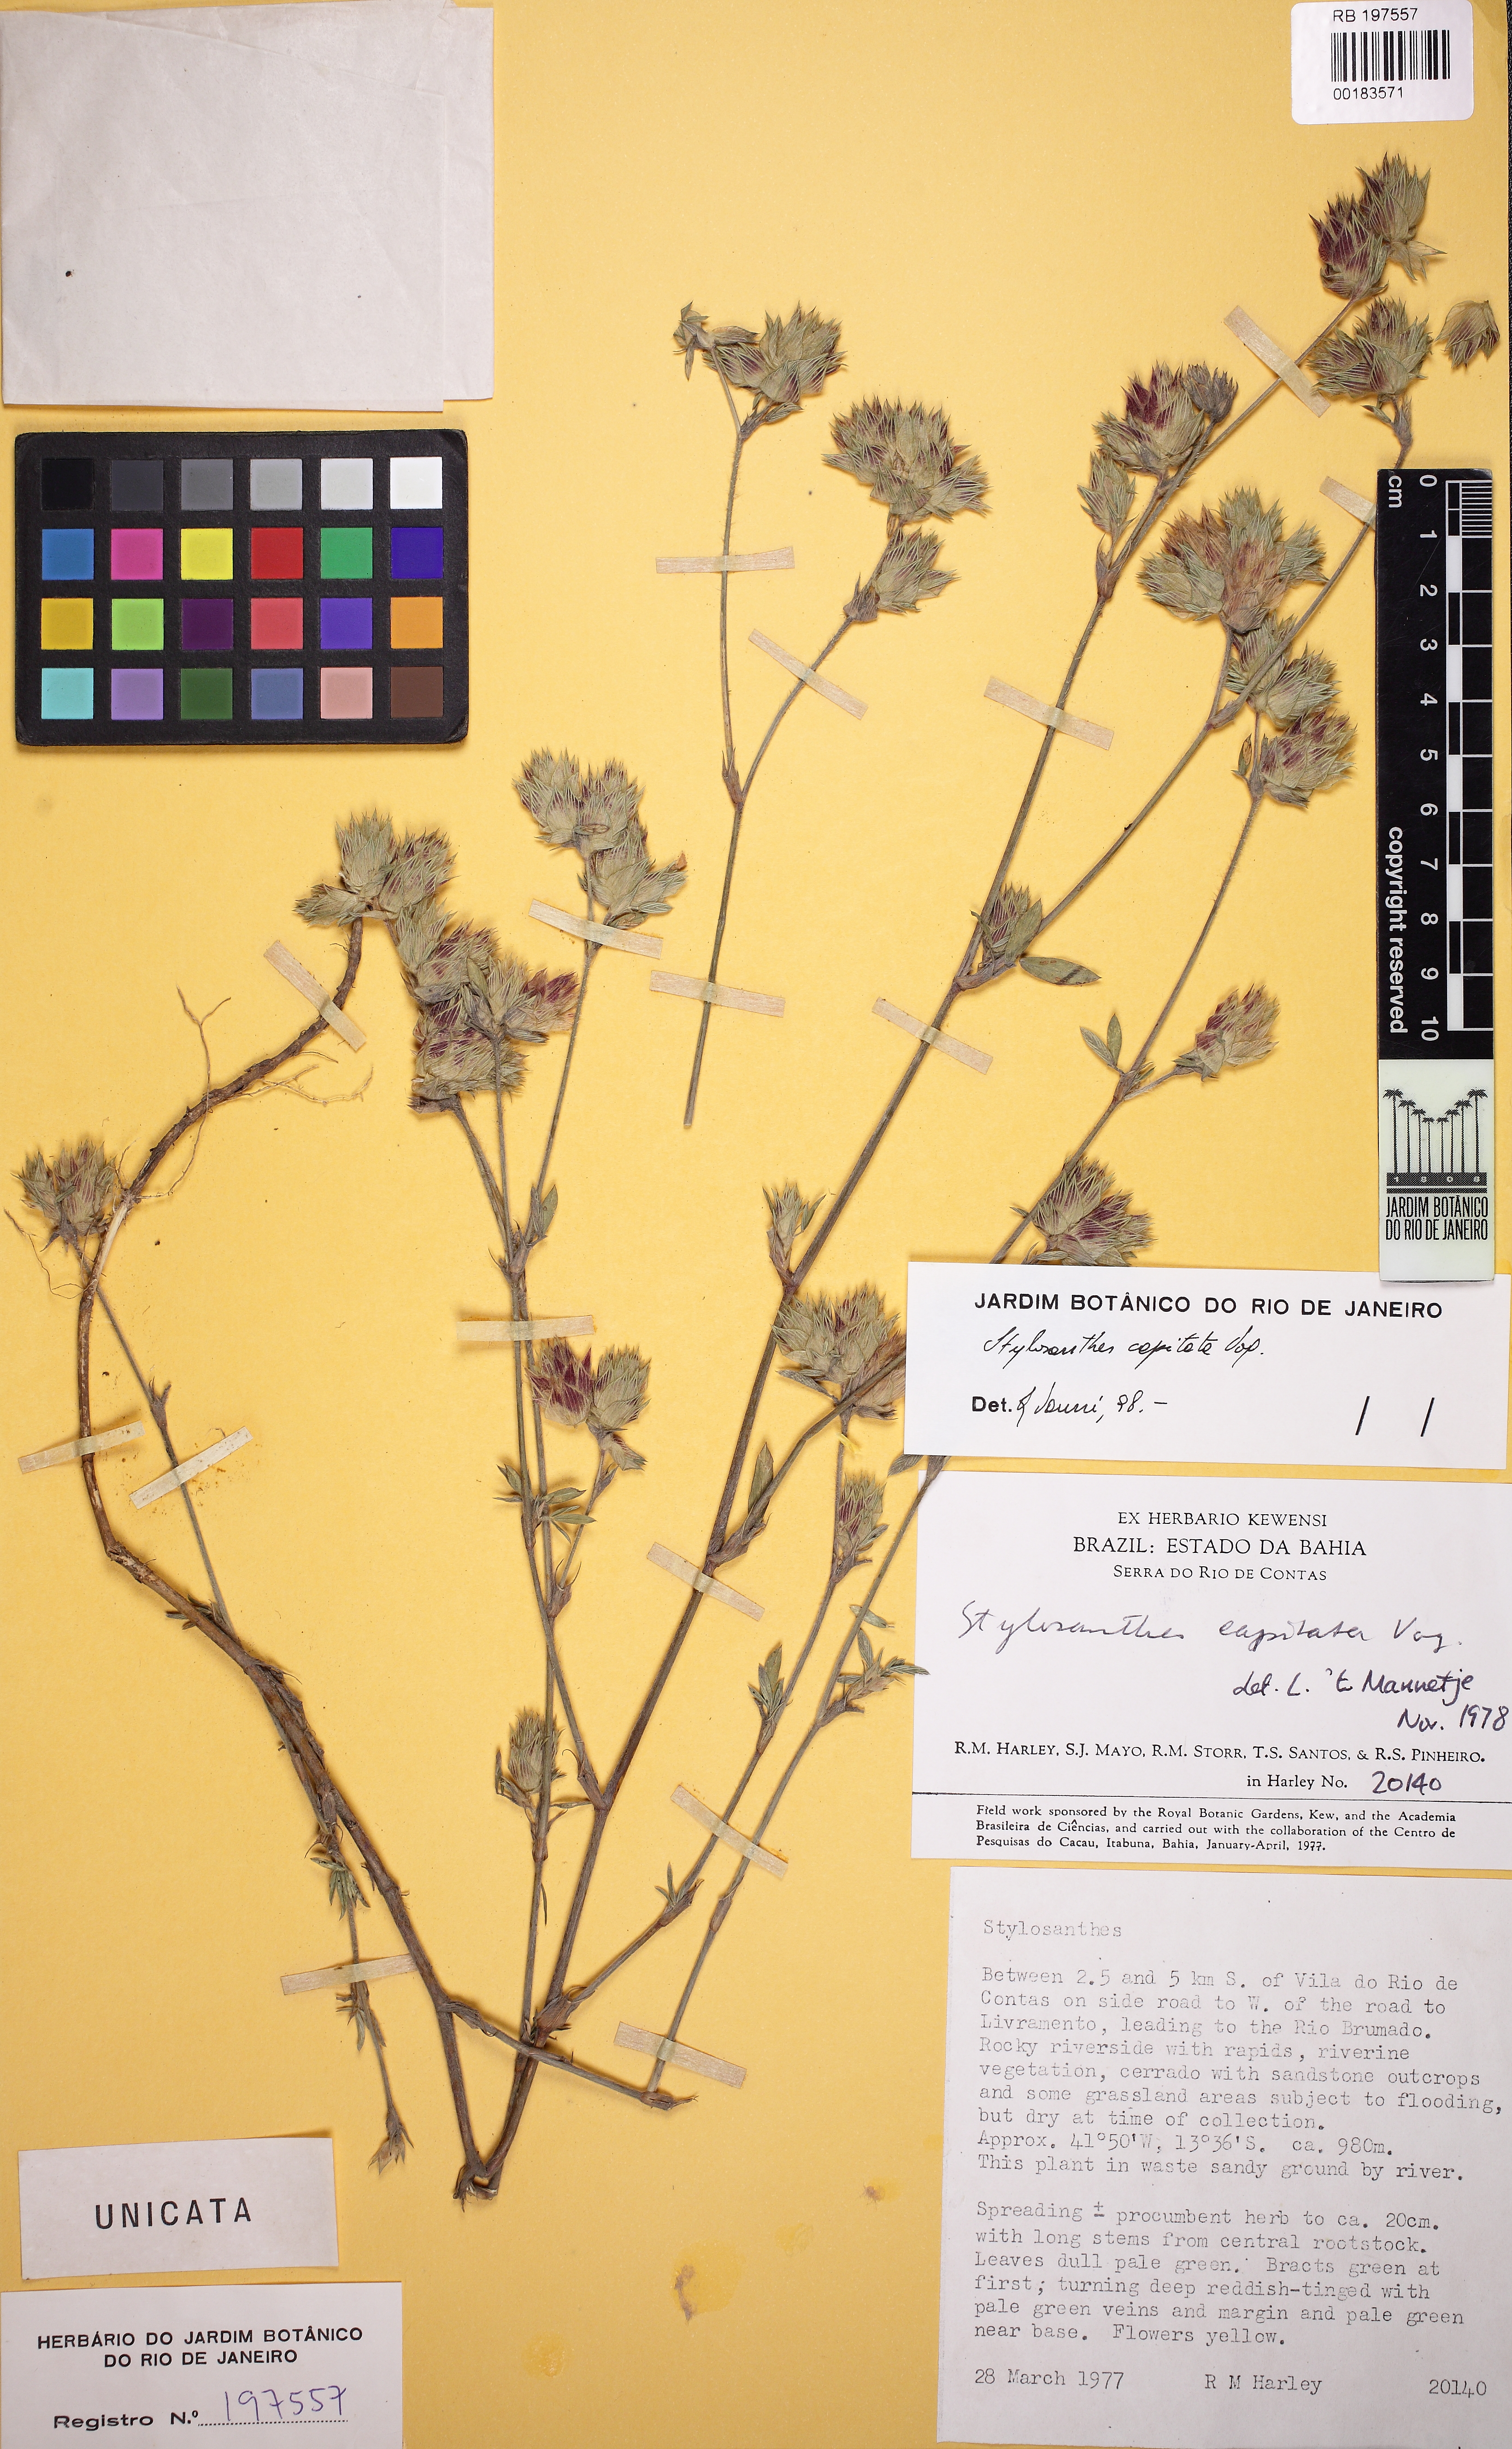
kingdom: Plantae
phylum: Tracheophyta
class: Magnoliopsida
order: Fabales
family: Fabaceae
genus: Stylosanthes
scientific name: Stylosanthes capitata
